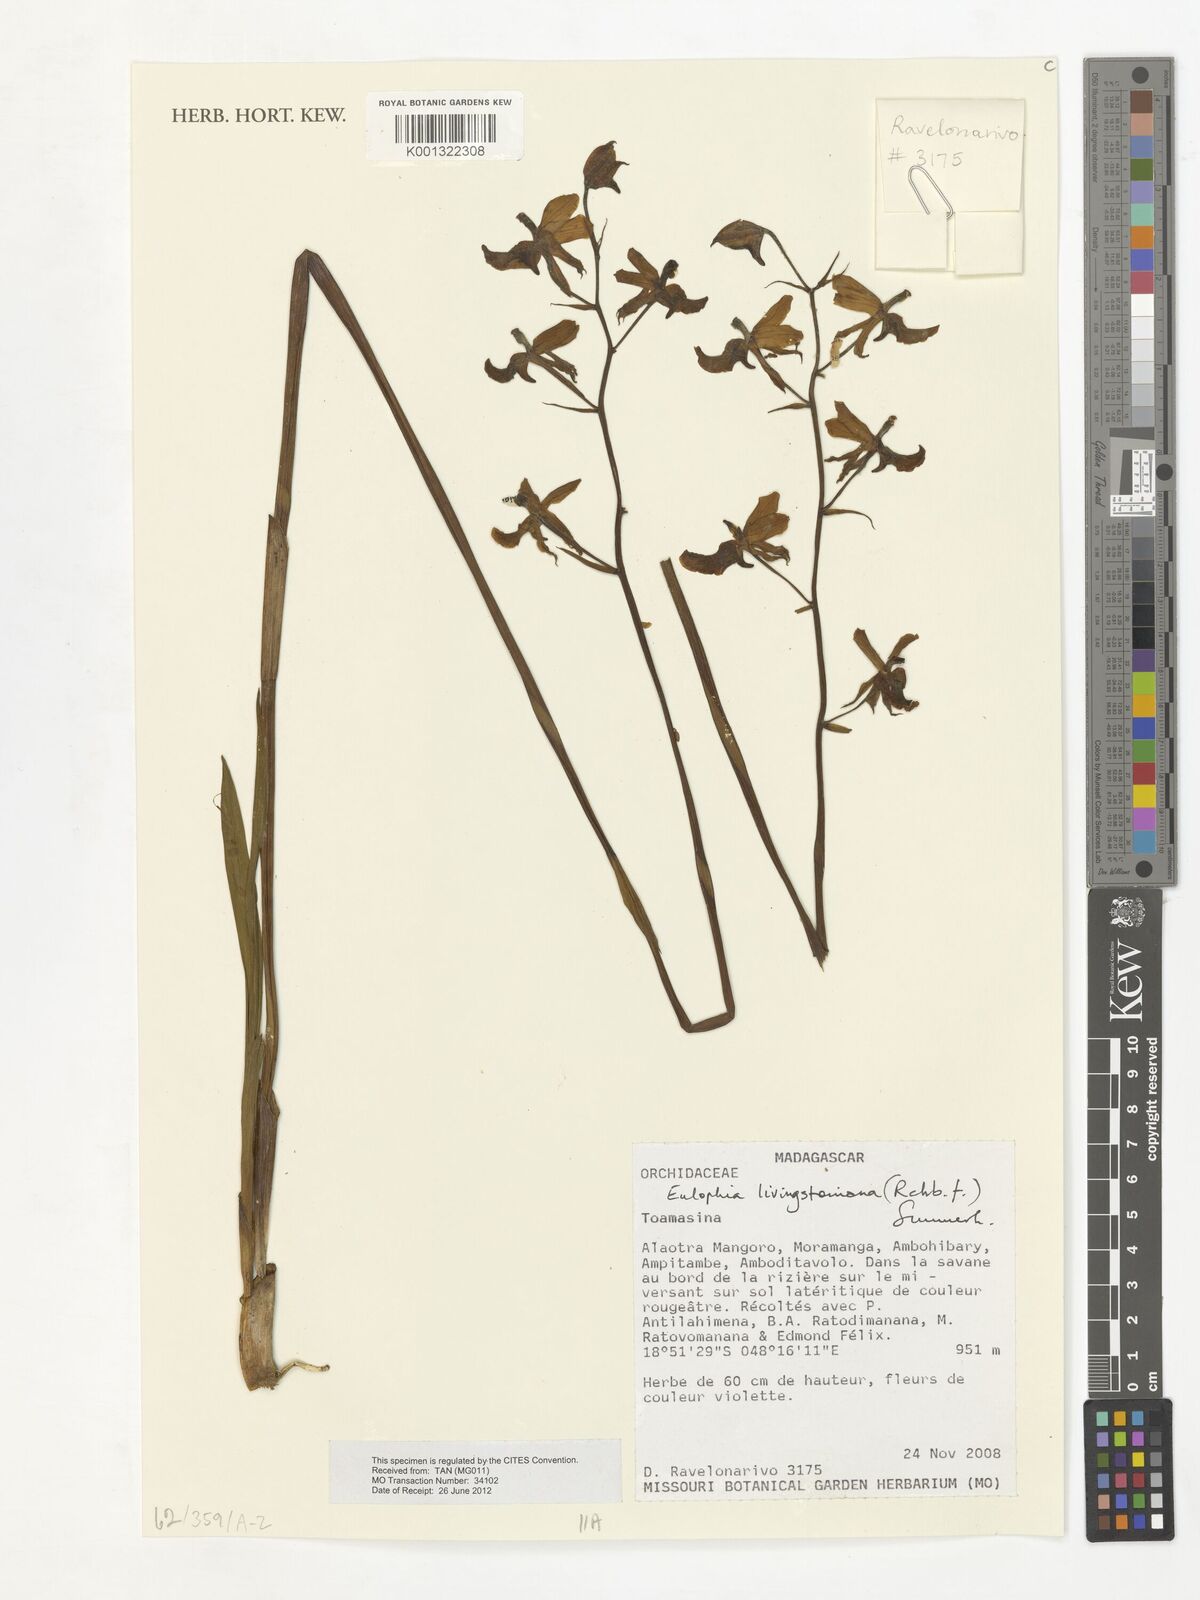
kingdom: Plantae
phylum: Tracheophyta
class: Liliopsida
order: Asparagales
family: Orchidaceae
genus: Eulophia
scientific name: Eulophia livingstoneana
